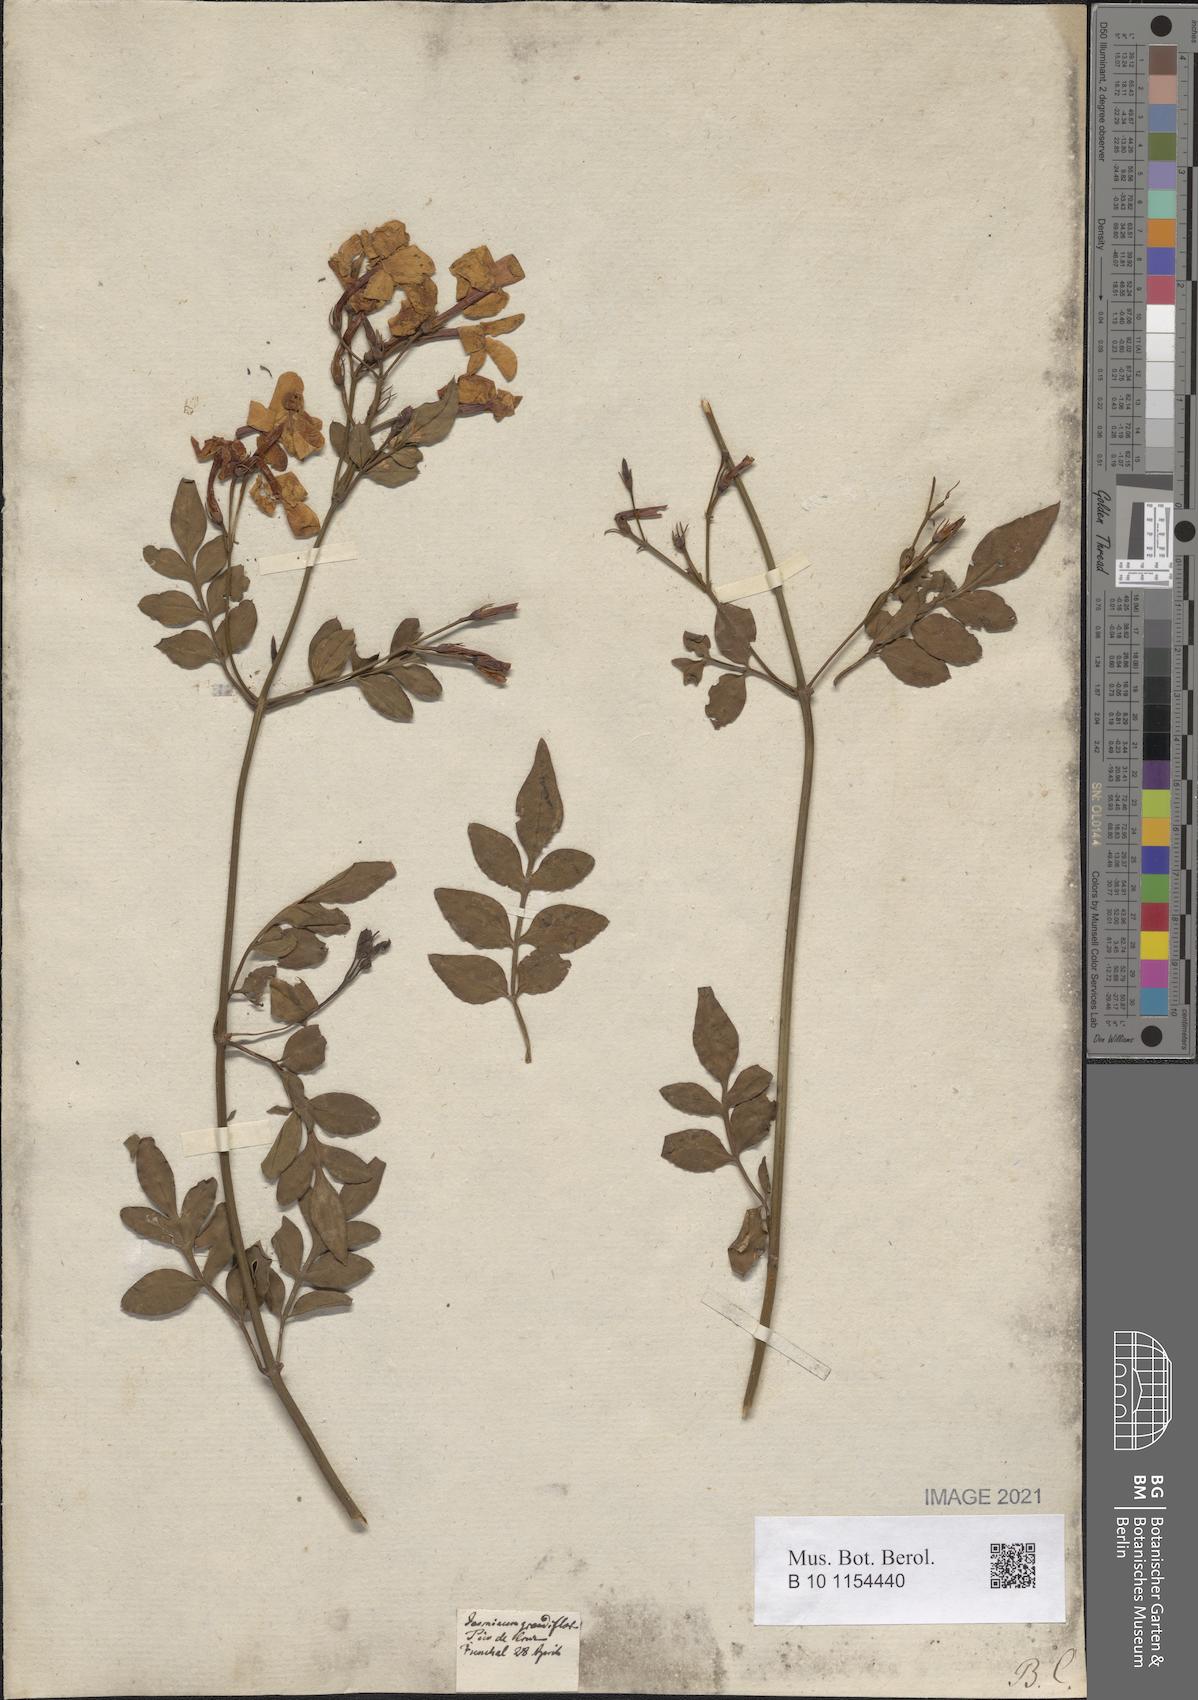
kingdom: Plantae
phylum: Tracheophyta
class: Magnoliopsida
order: Lamiales
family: Oleaceae
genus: Jasminum
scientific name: Jasminum grandiflorum
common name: Catalonian jasmine
